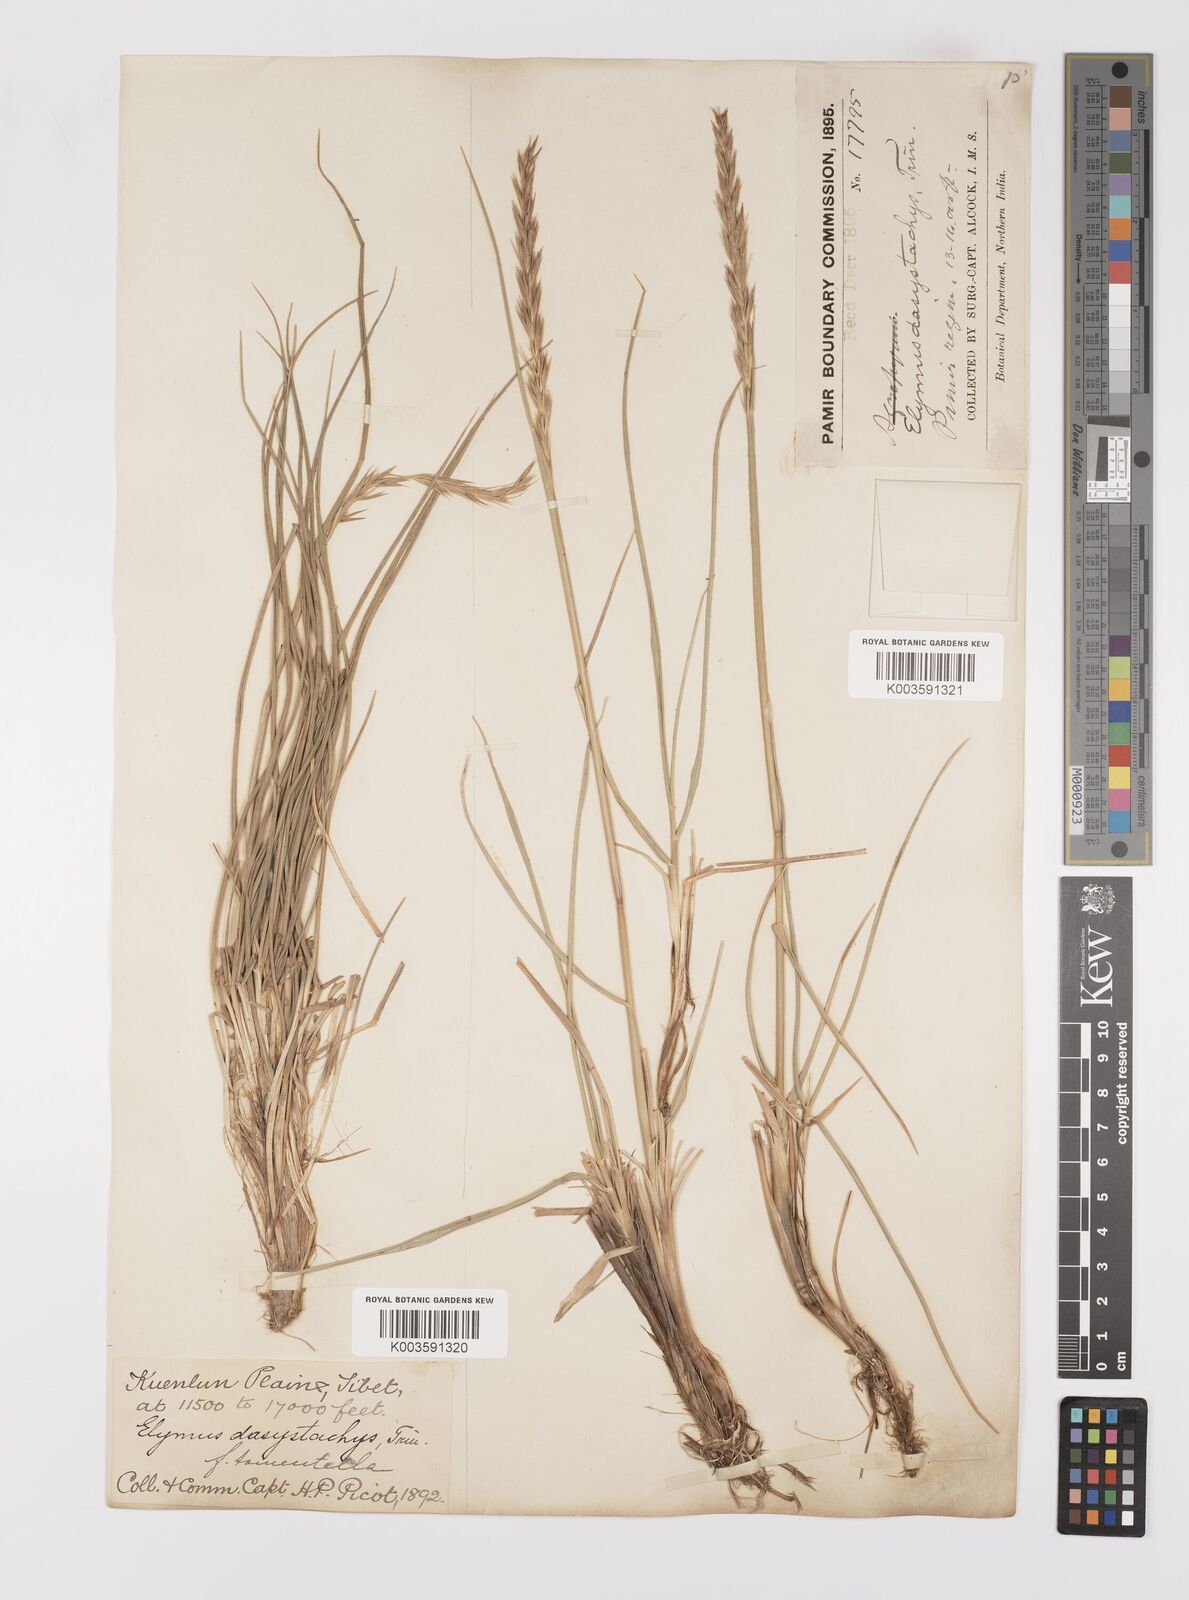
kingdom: Plantae
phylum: Tracheophyta
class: Liliopsida
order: Poales
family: Poaceae
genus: Leymus
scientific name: Leymus secalinus
